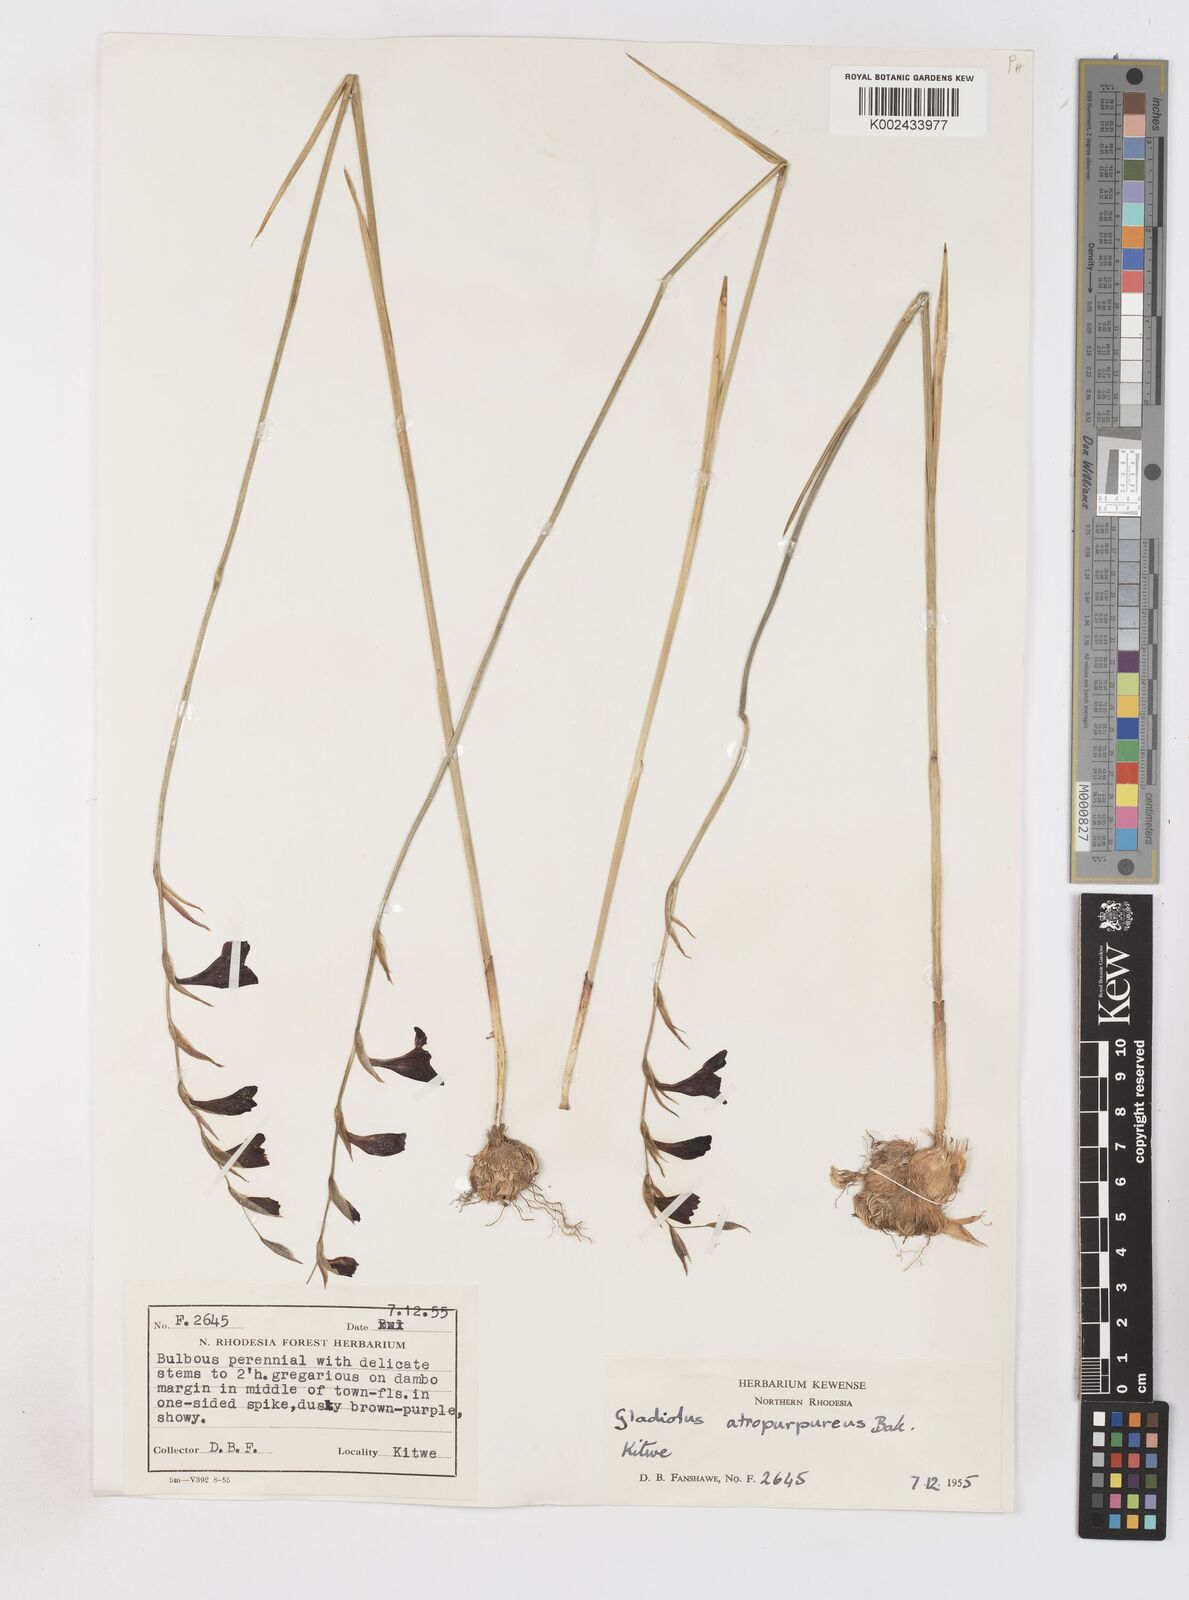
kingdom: Plantae
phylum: Tracheophyta
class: Liliopsida
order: Asparagales
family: Iridaceae
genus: Gladiolus
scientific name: Gladiolus atropurpureus
